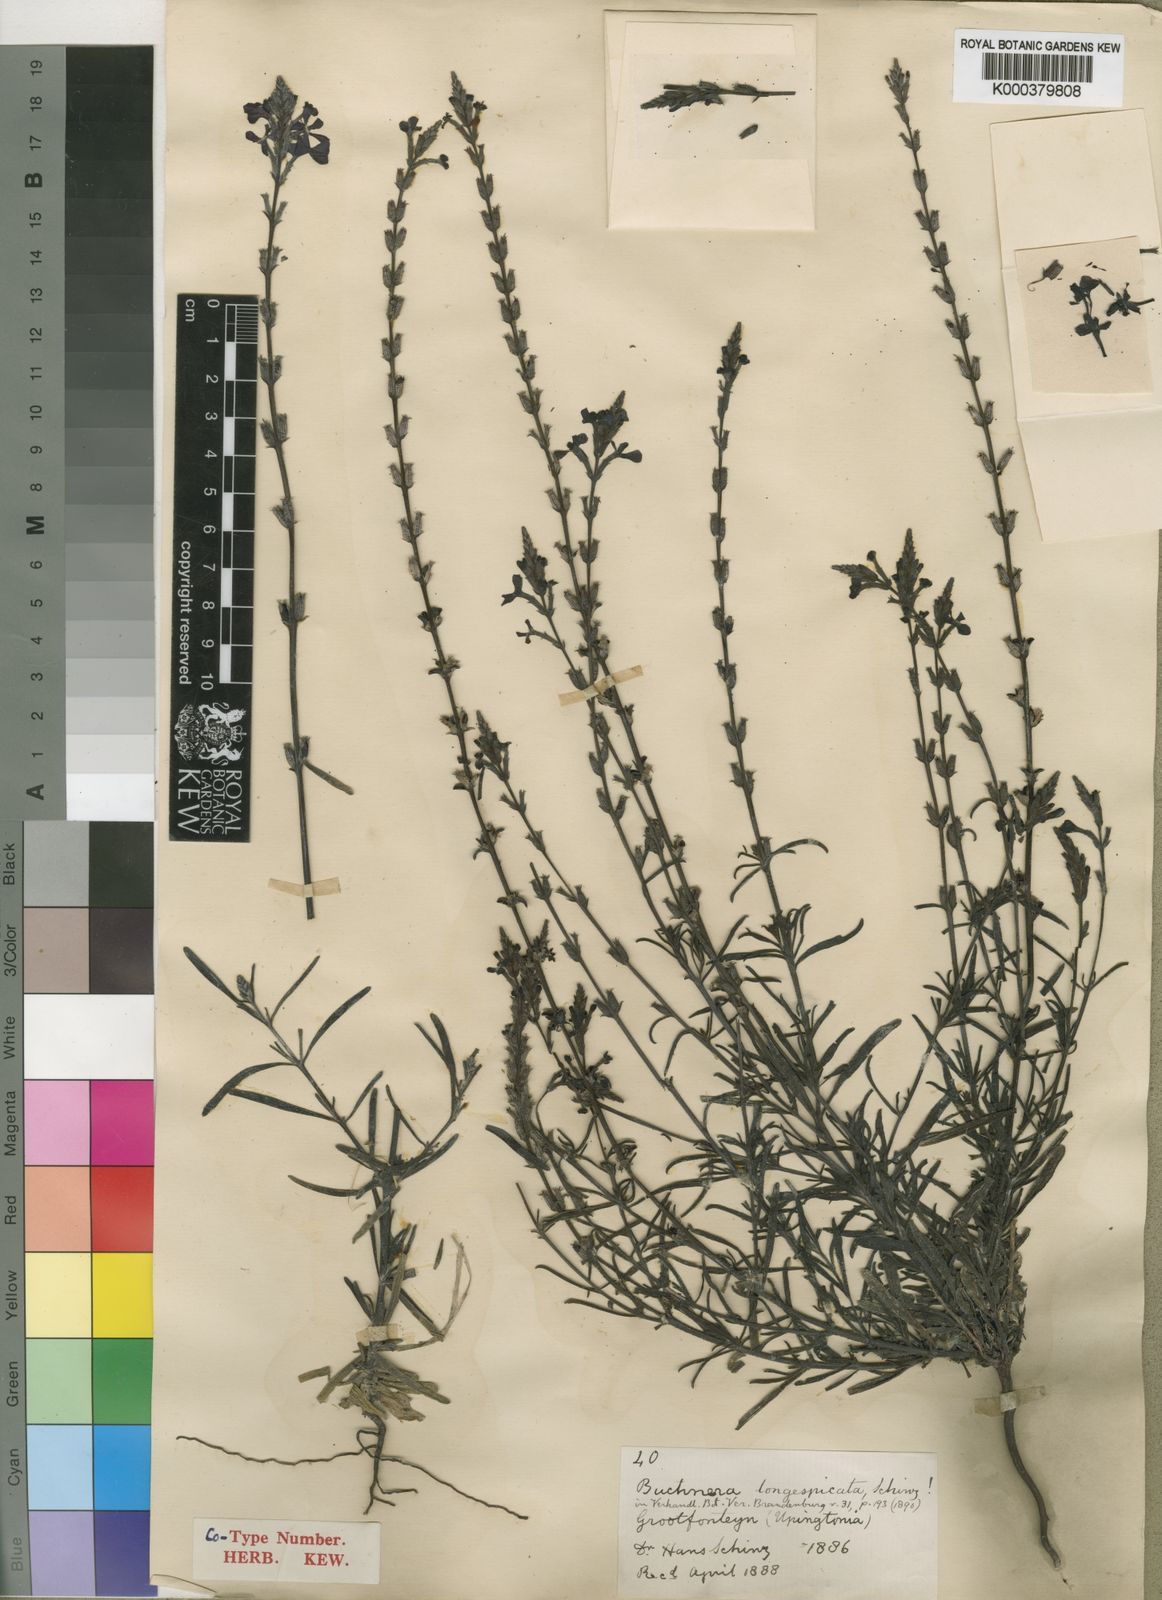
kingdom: Plantae
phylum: Tracheophyta
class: Magnoliopsida
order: Lamiales
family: Orobanchaceae
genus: Buchnera
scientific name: Buchnera longespicata
